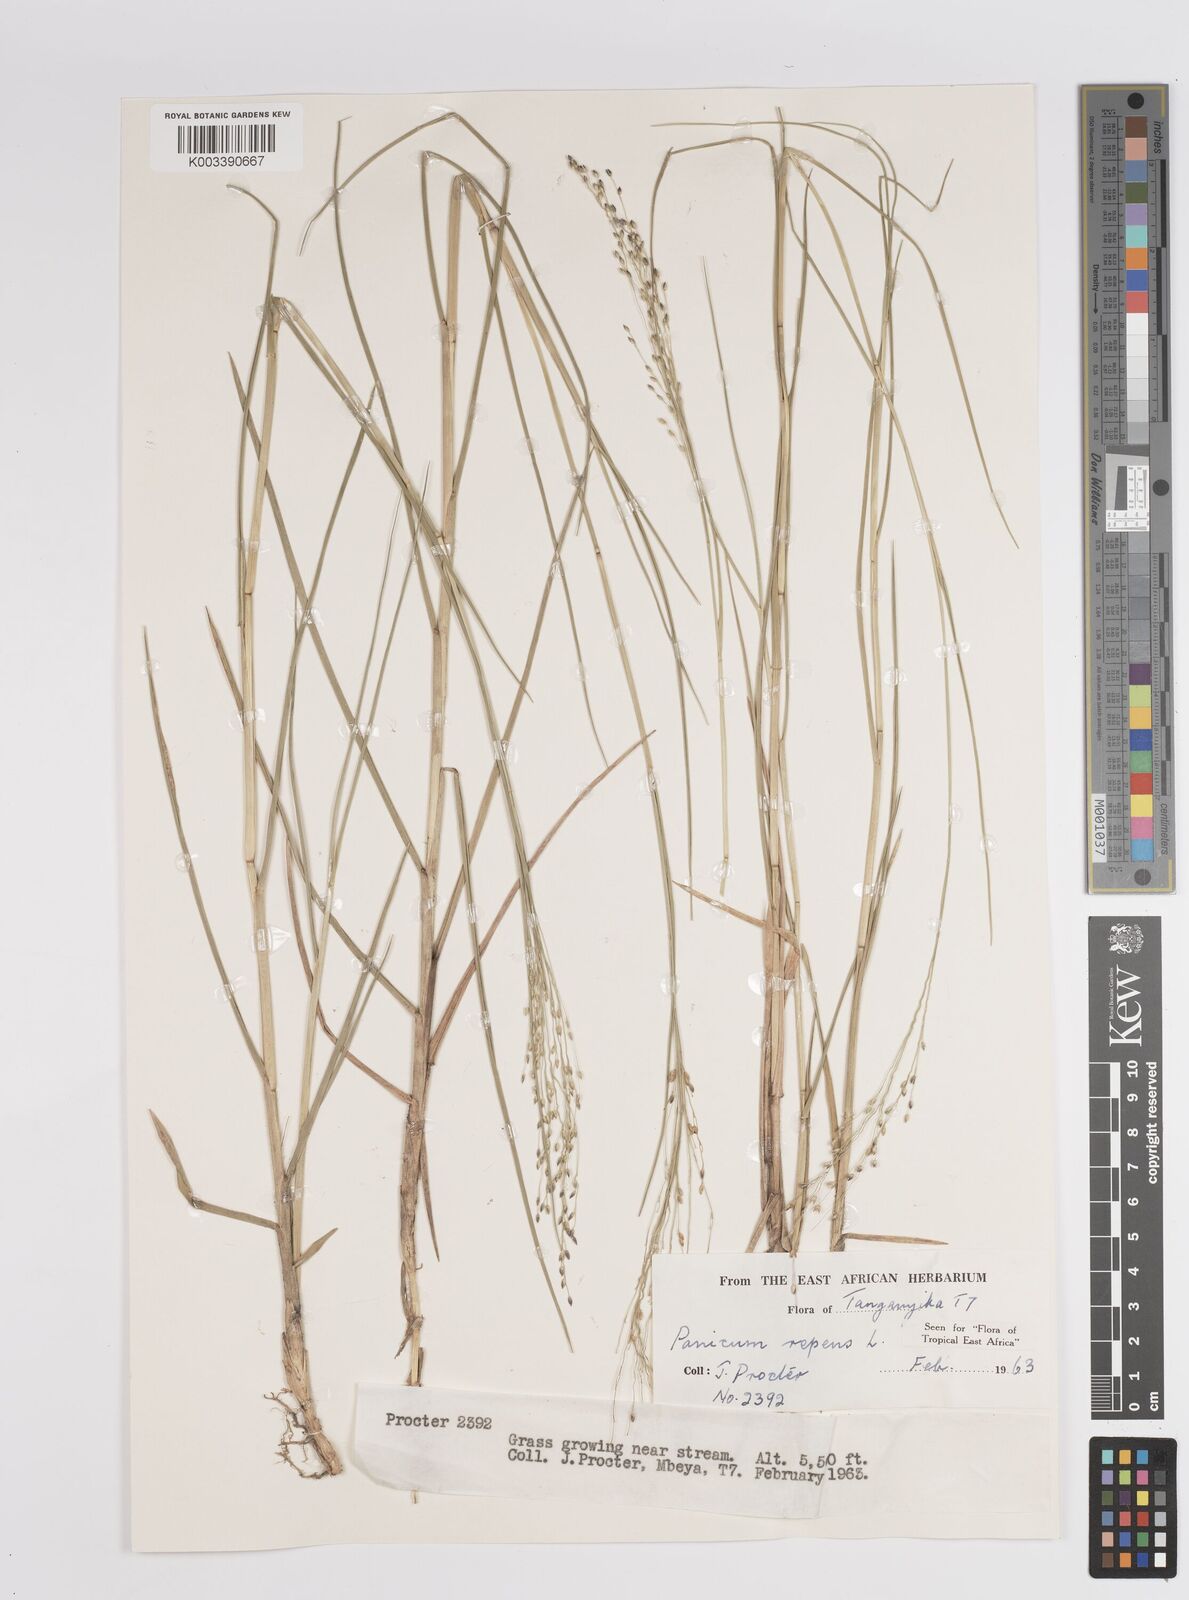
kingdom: Plantae
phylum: Tracheophyta
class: Liliopsida
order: Poales
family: Poaceae
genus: Panicum
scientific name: Panicum repens
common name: Torpedo grass
